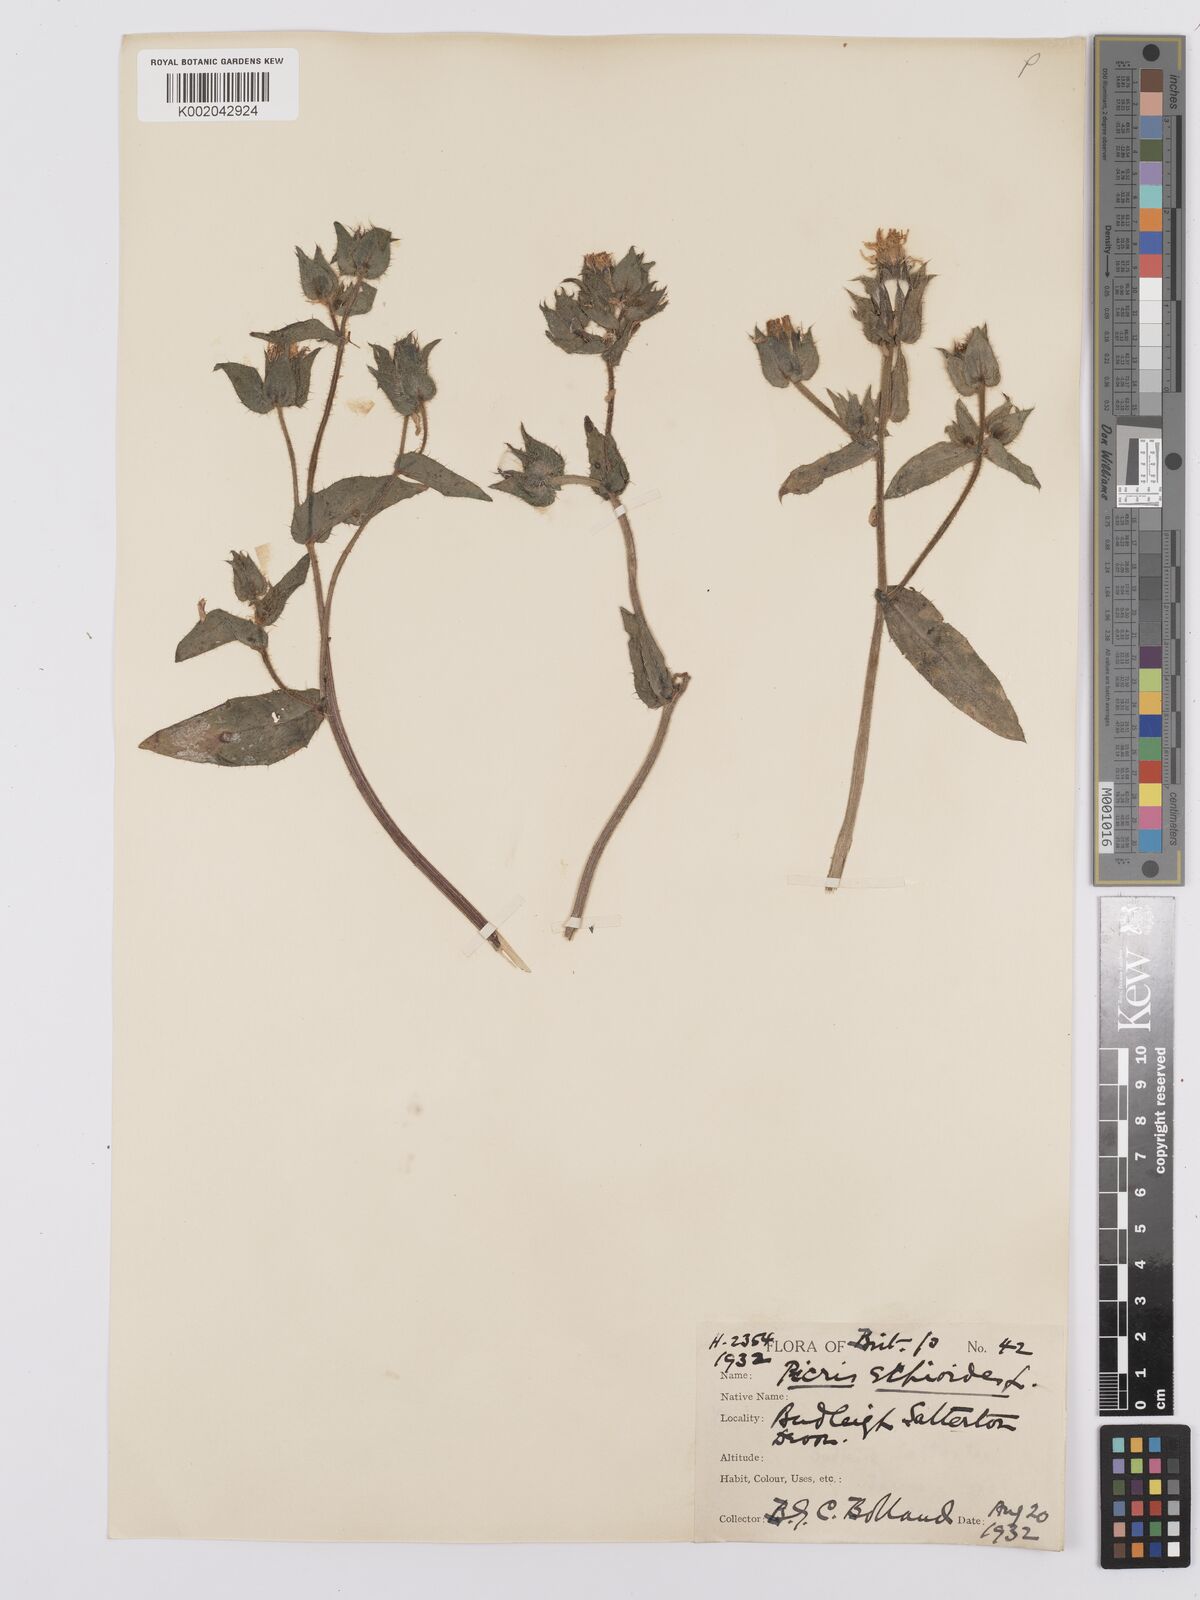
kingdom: Plantae
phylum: Tracheophyta
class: Magnoliopsida
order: Asterales
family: Asteraceae
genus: Helminthotheca
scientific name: Helminthotheca echioides
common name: Ox-tongue
